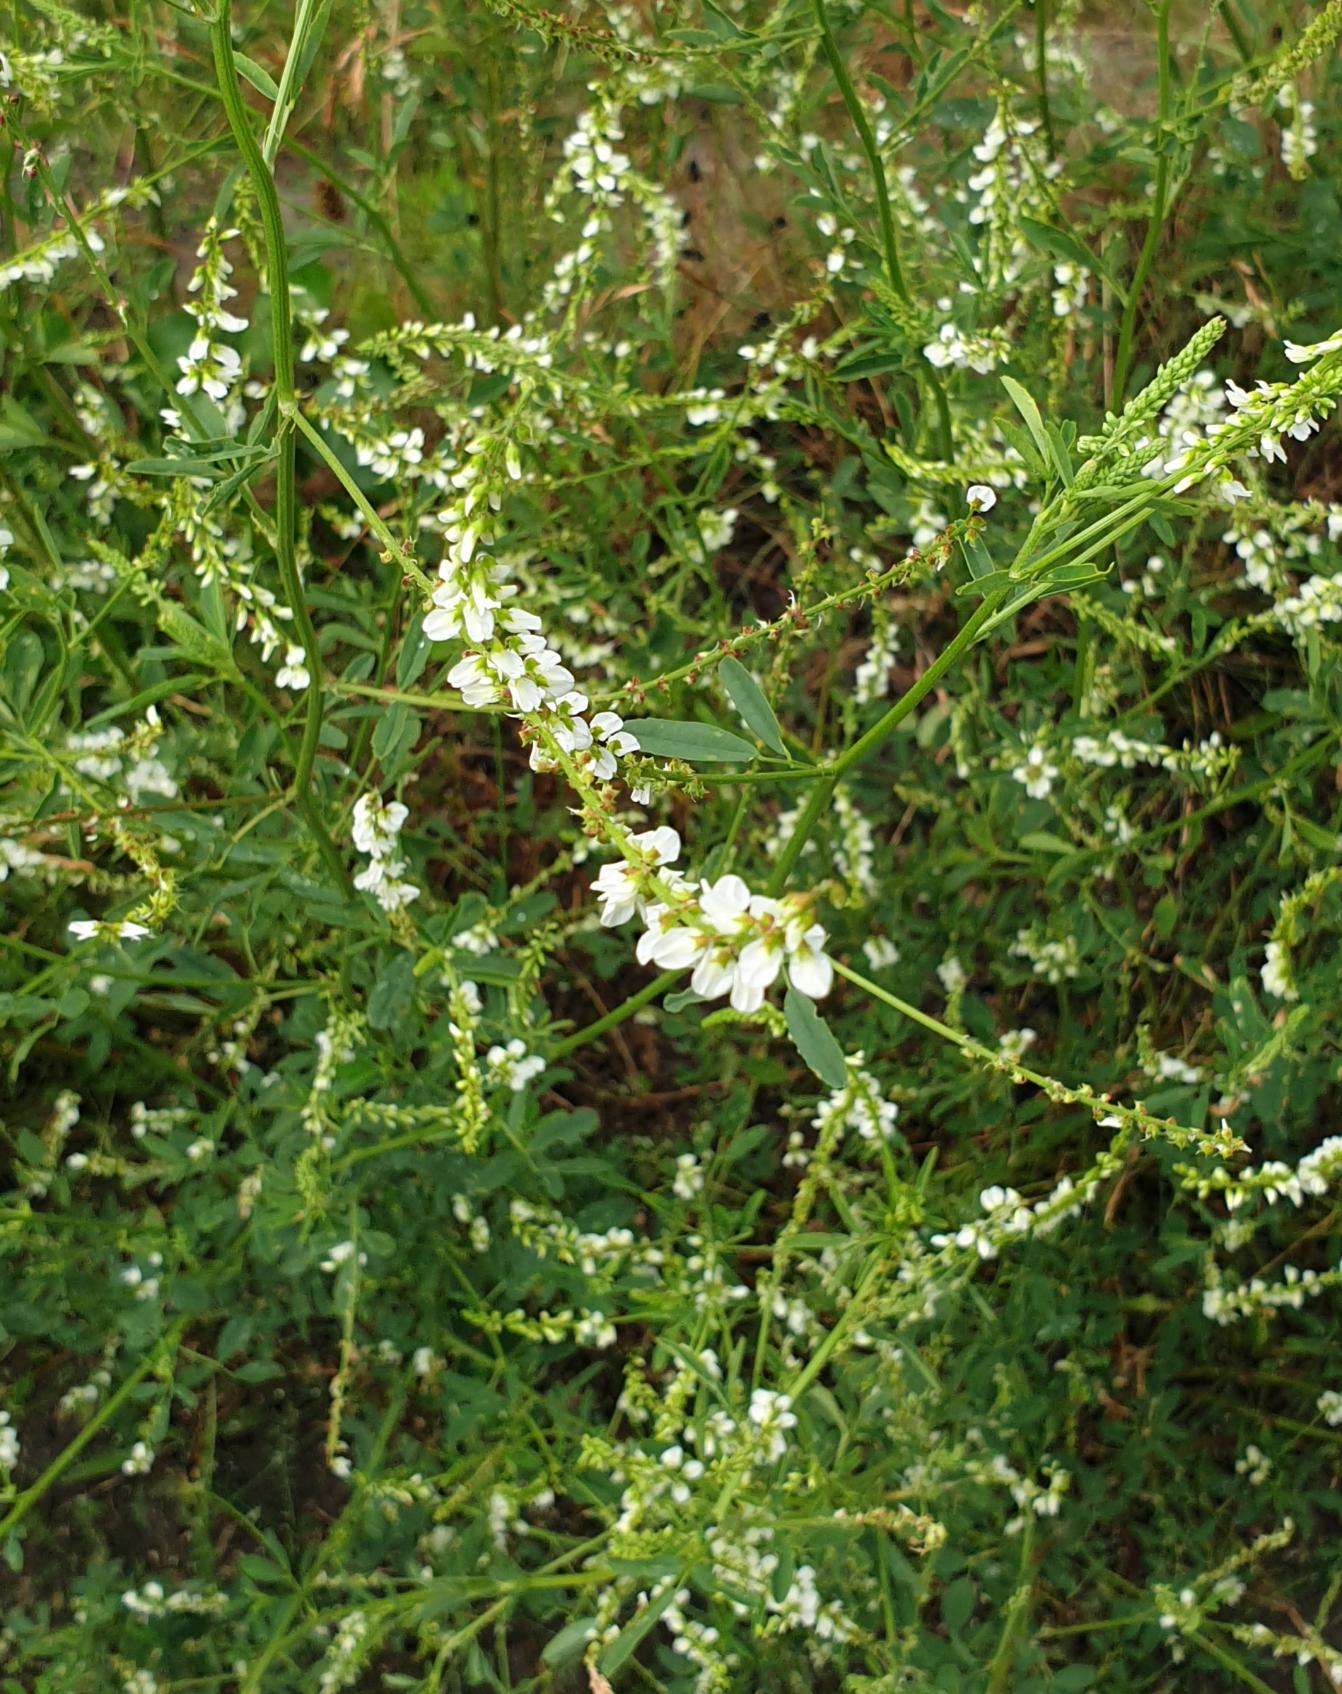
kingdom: Plantae
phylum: Tracheophyta
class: Magnoliopsida
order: Fabales
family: Fabaceae
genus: Melilotus
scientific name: Melilotus albus
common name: Hvid stenkløver
